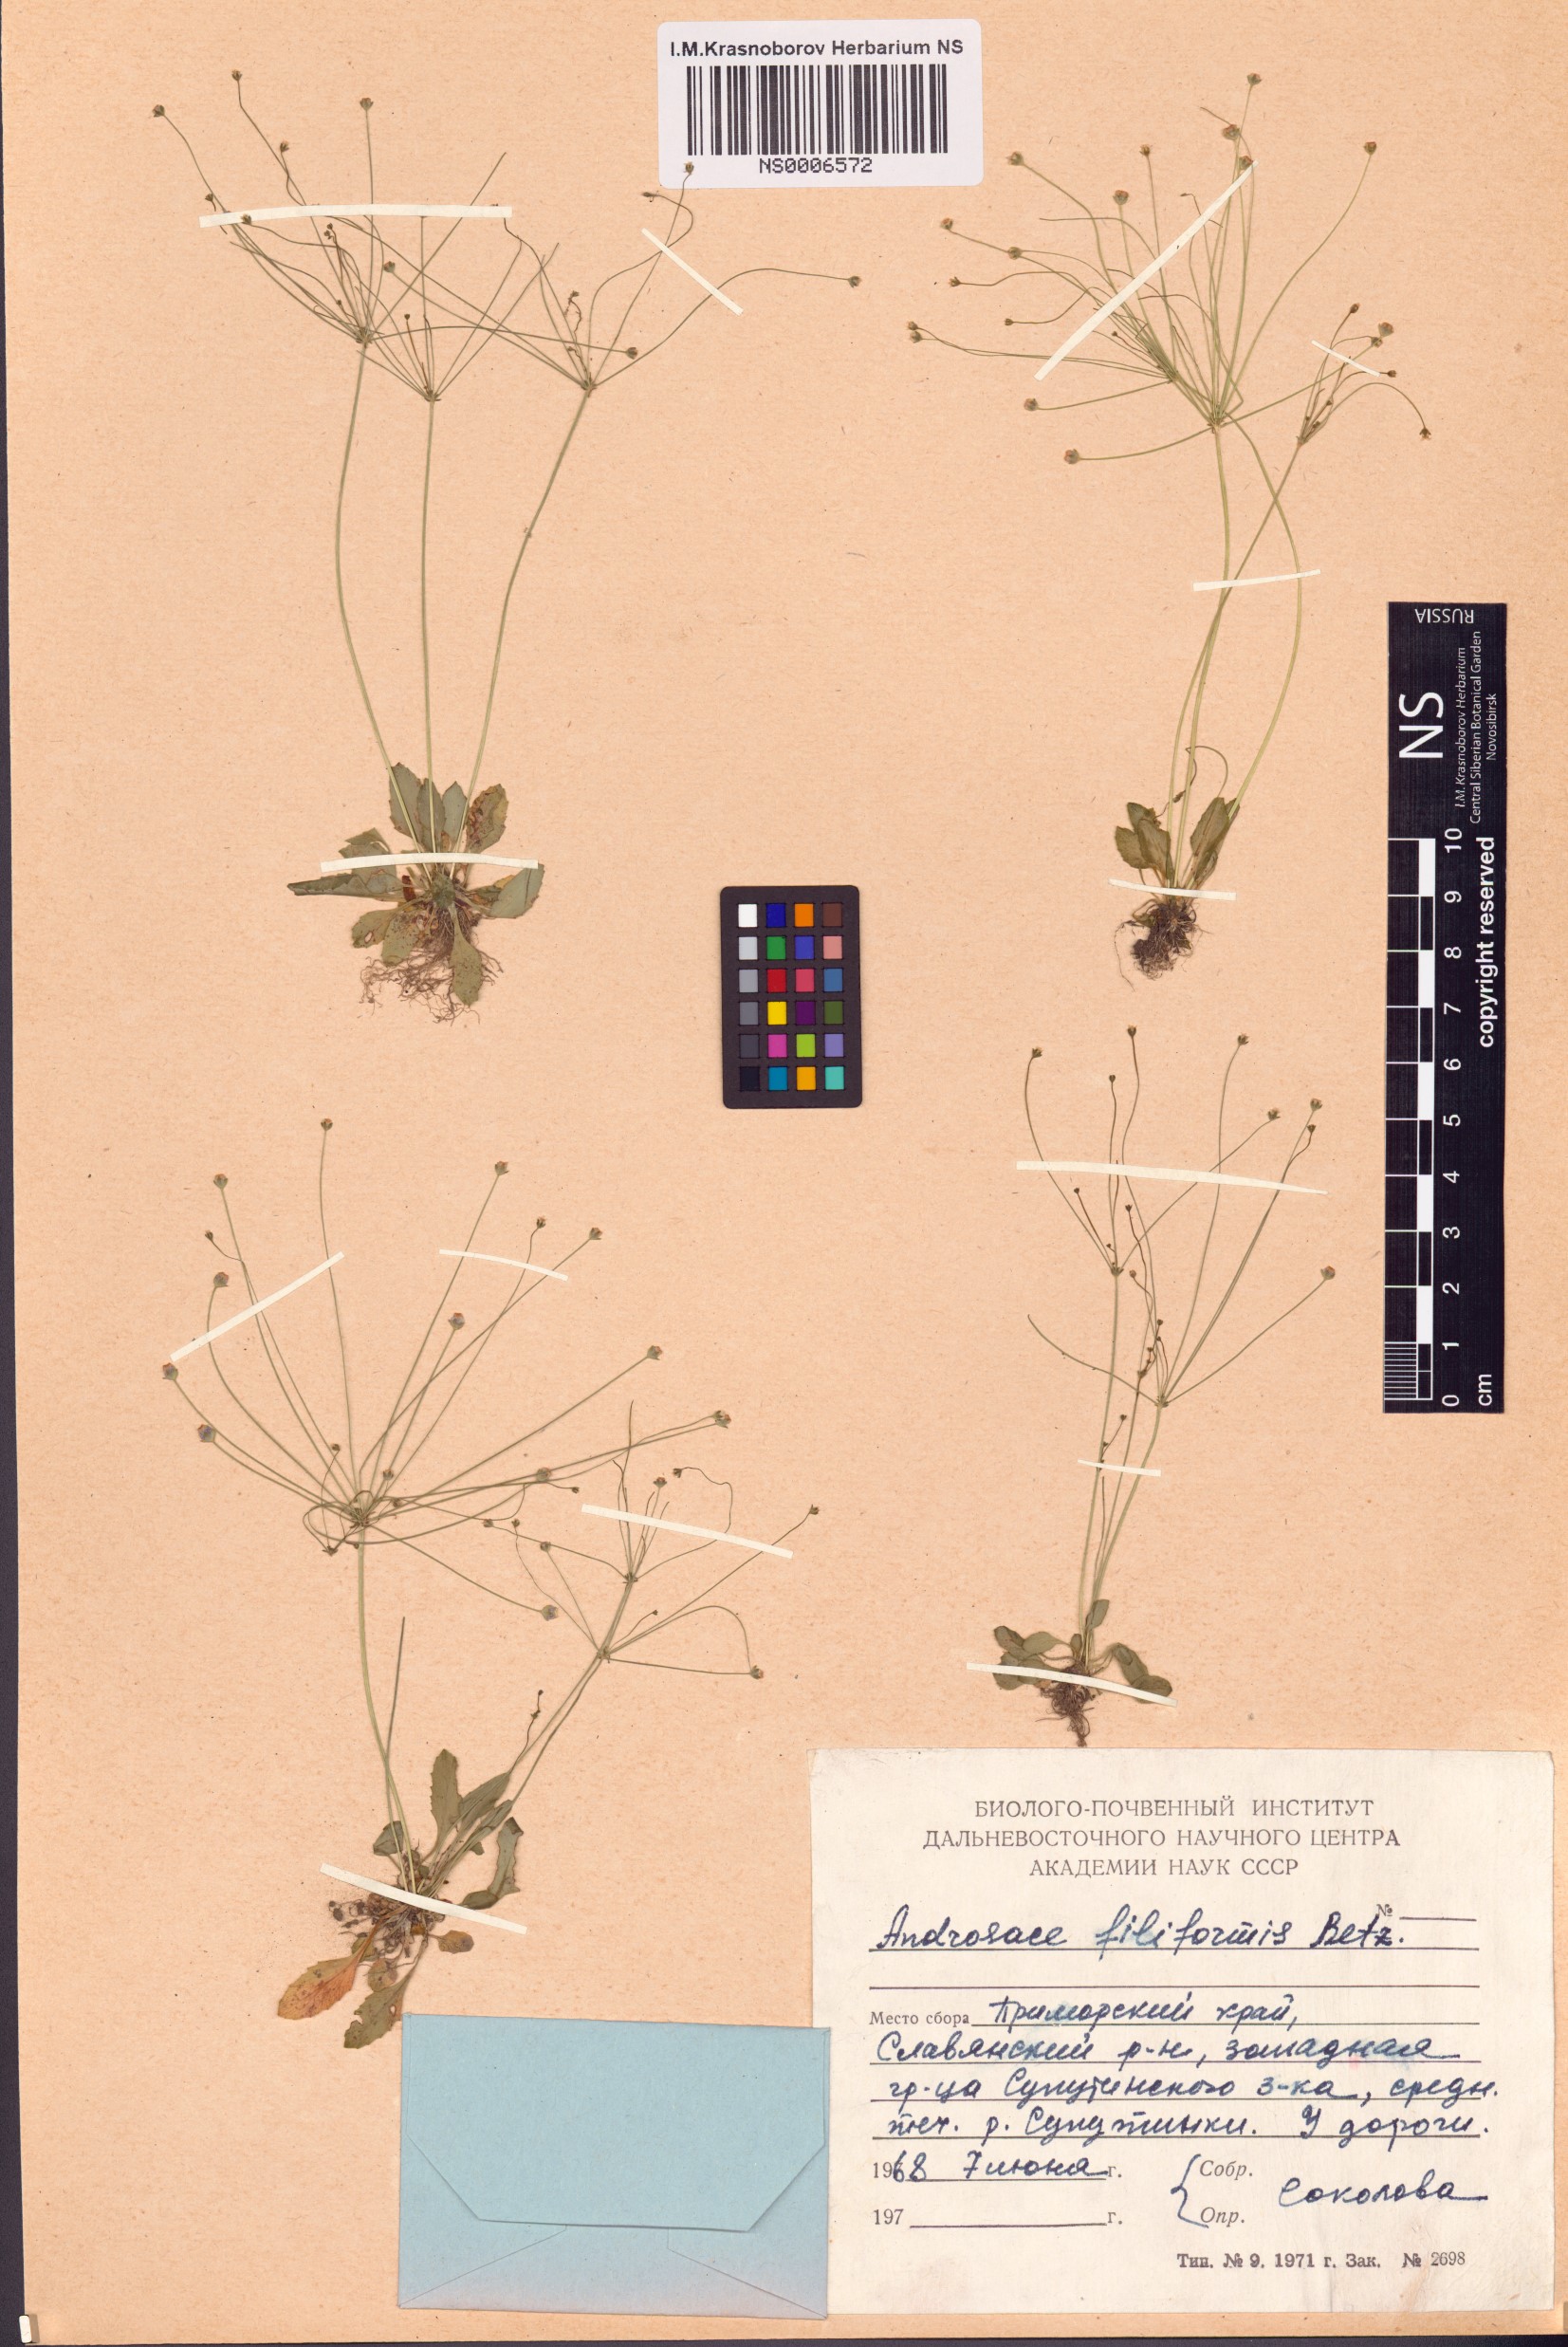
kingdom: Plantae
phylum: Tracheophyta
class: Magnoliopsida
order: Ericales
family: Primulaceae
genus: Androsace
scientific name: Androsace filiformis
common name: Filiform rock jasmine
